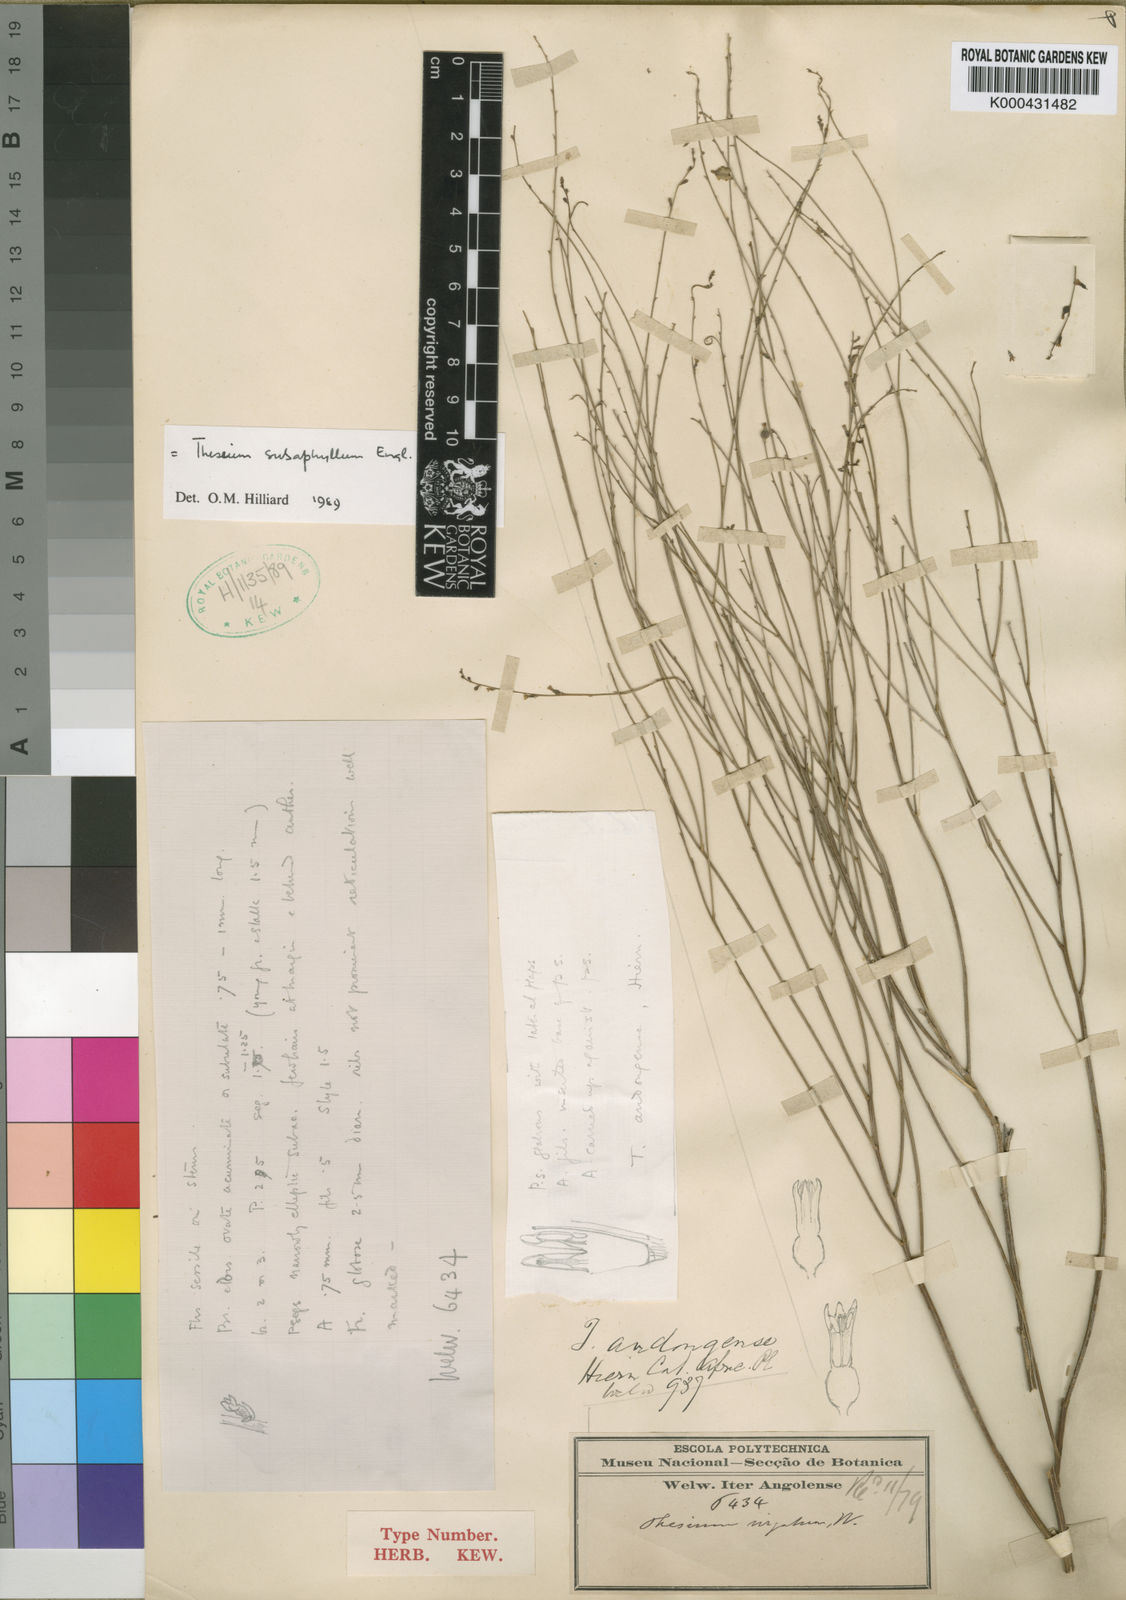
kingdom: Plantae
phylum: Tracheophyta
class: Magnoliopsida
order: Santalales
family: Thesiaceae
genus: Thesium
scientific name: Thesium subaphyllum
